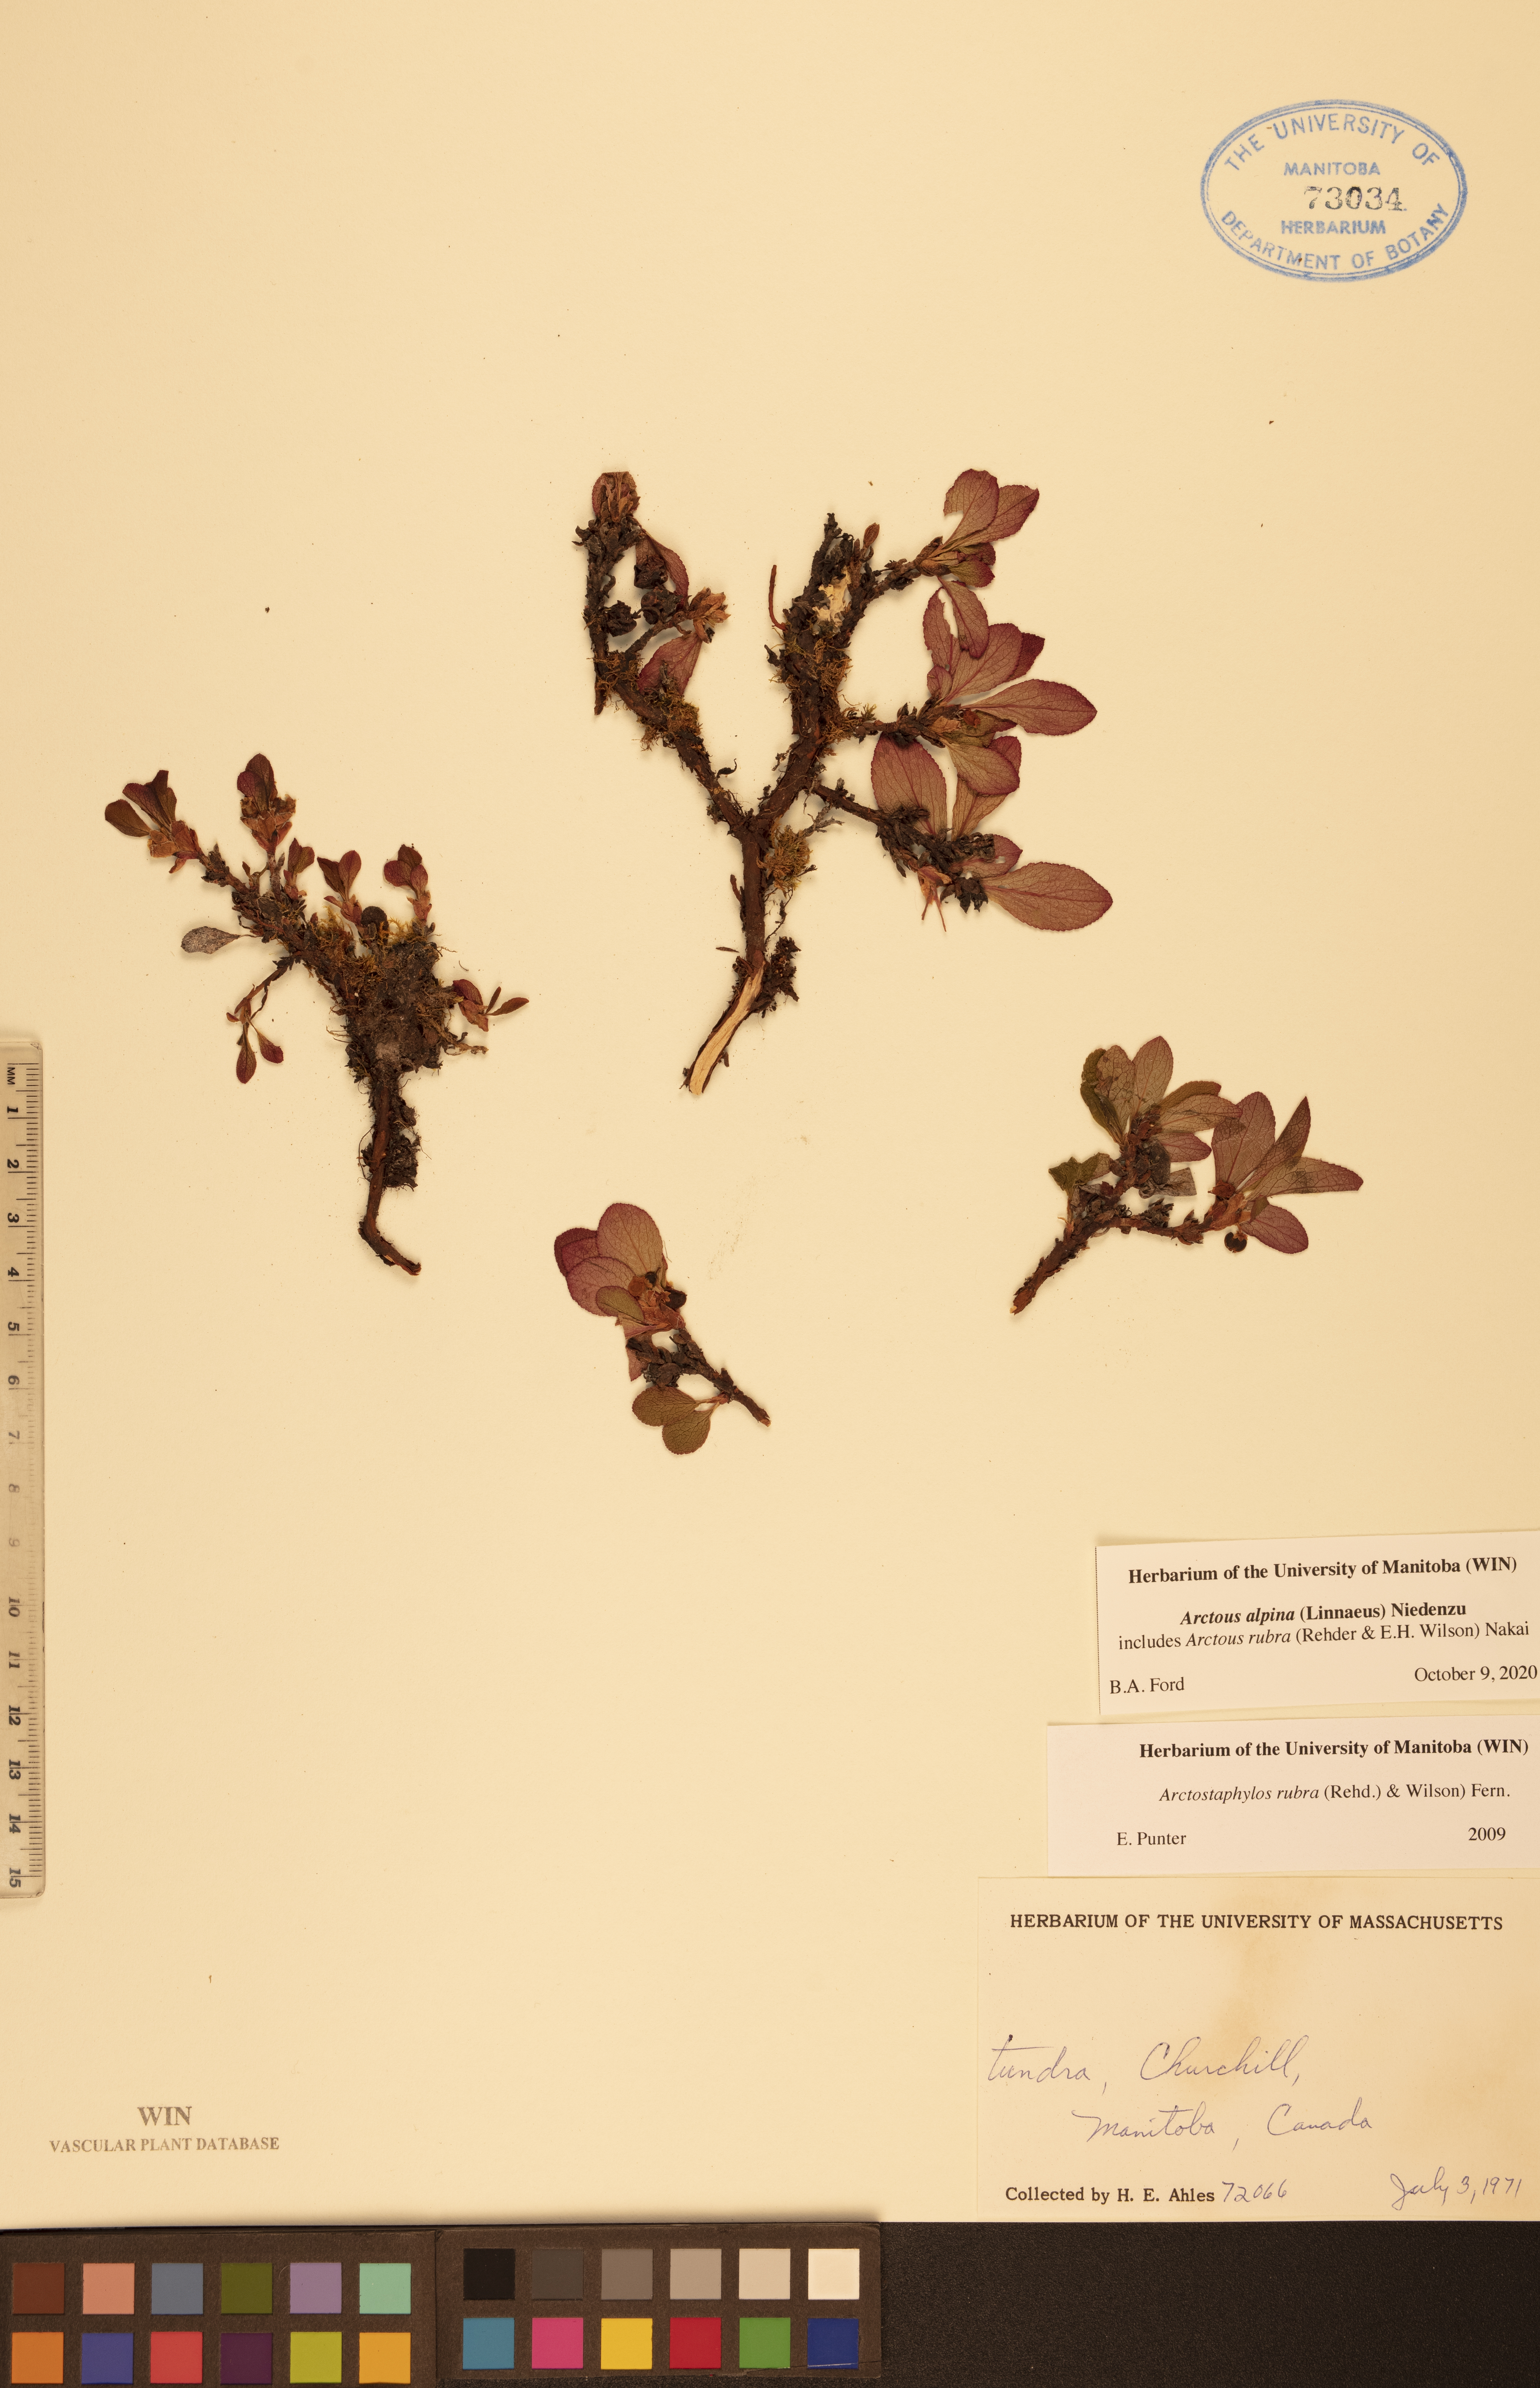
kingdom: Plantae
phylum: Tracheophyta
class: Magnoliopsida
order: Ericales
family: Ericaceae
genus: Arctostaphylos
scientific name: Arctostaphylos alpinus
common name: Alpine bearberry
